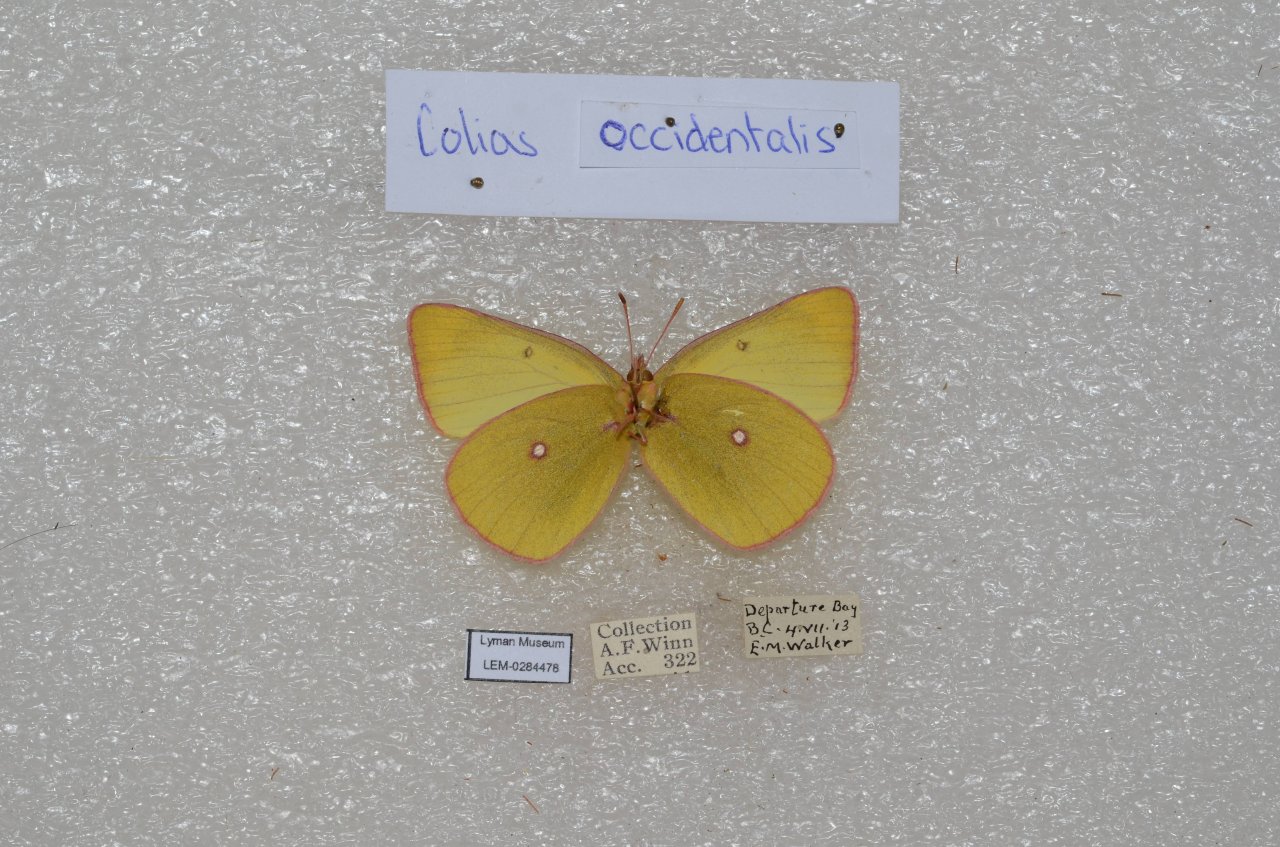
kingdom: Animalia
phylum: Arthropoda
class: Insecta
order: Lepidoptera
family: Pieridae
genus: Colias
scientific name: Colias occidentalis
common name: Western Sulphur
